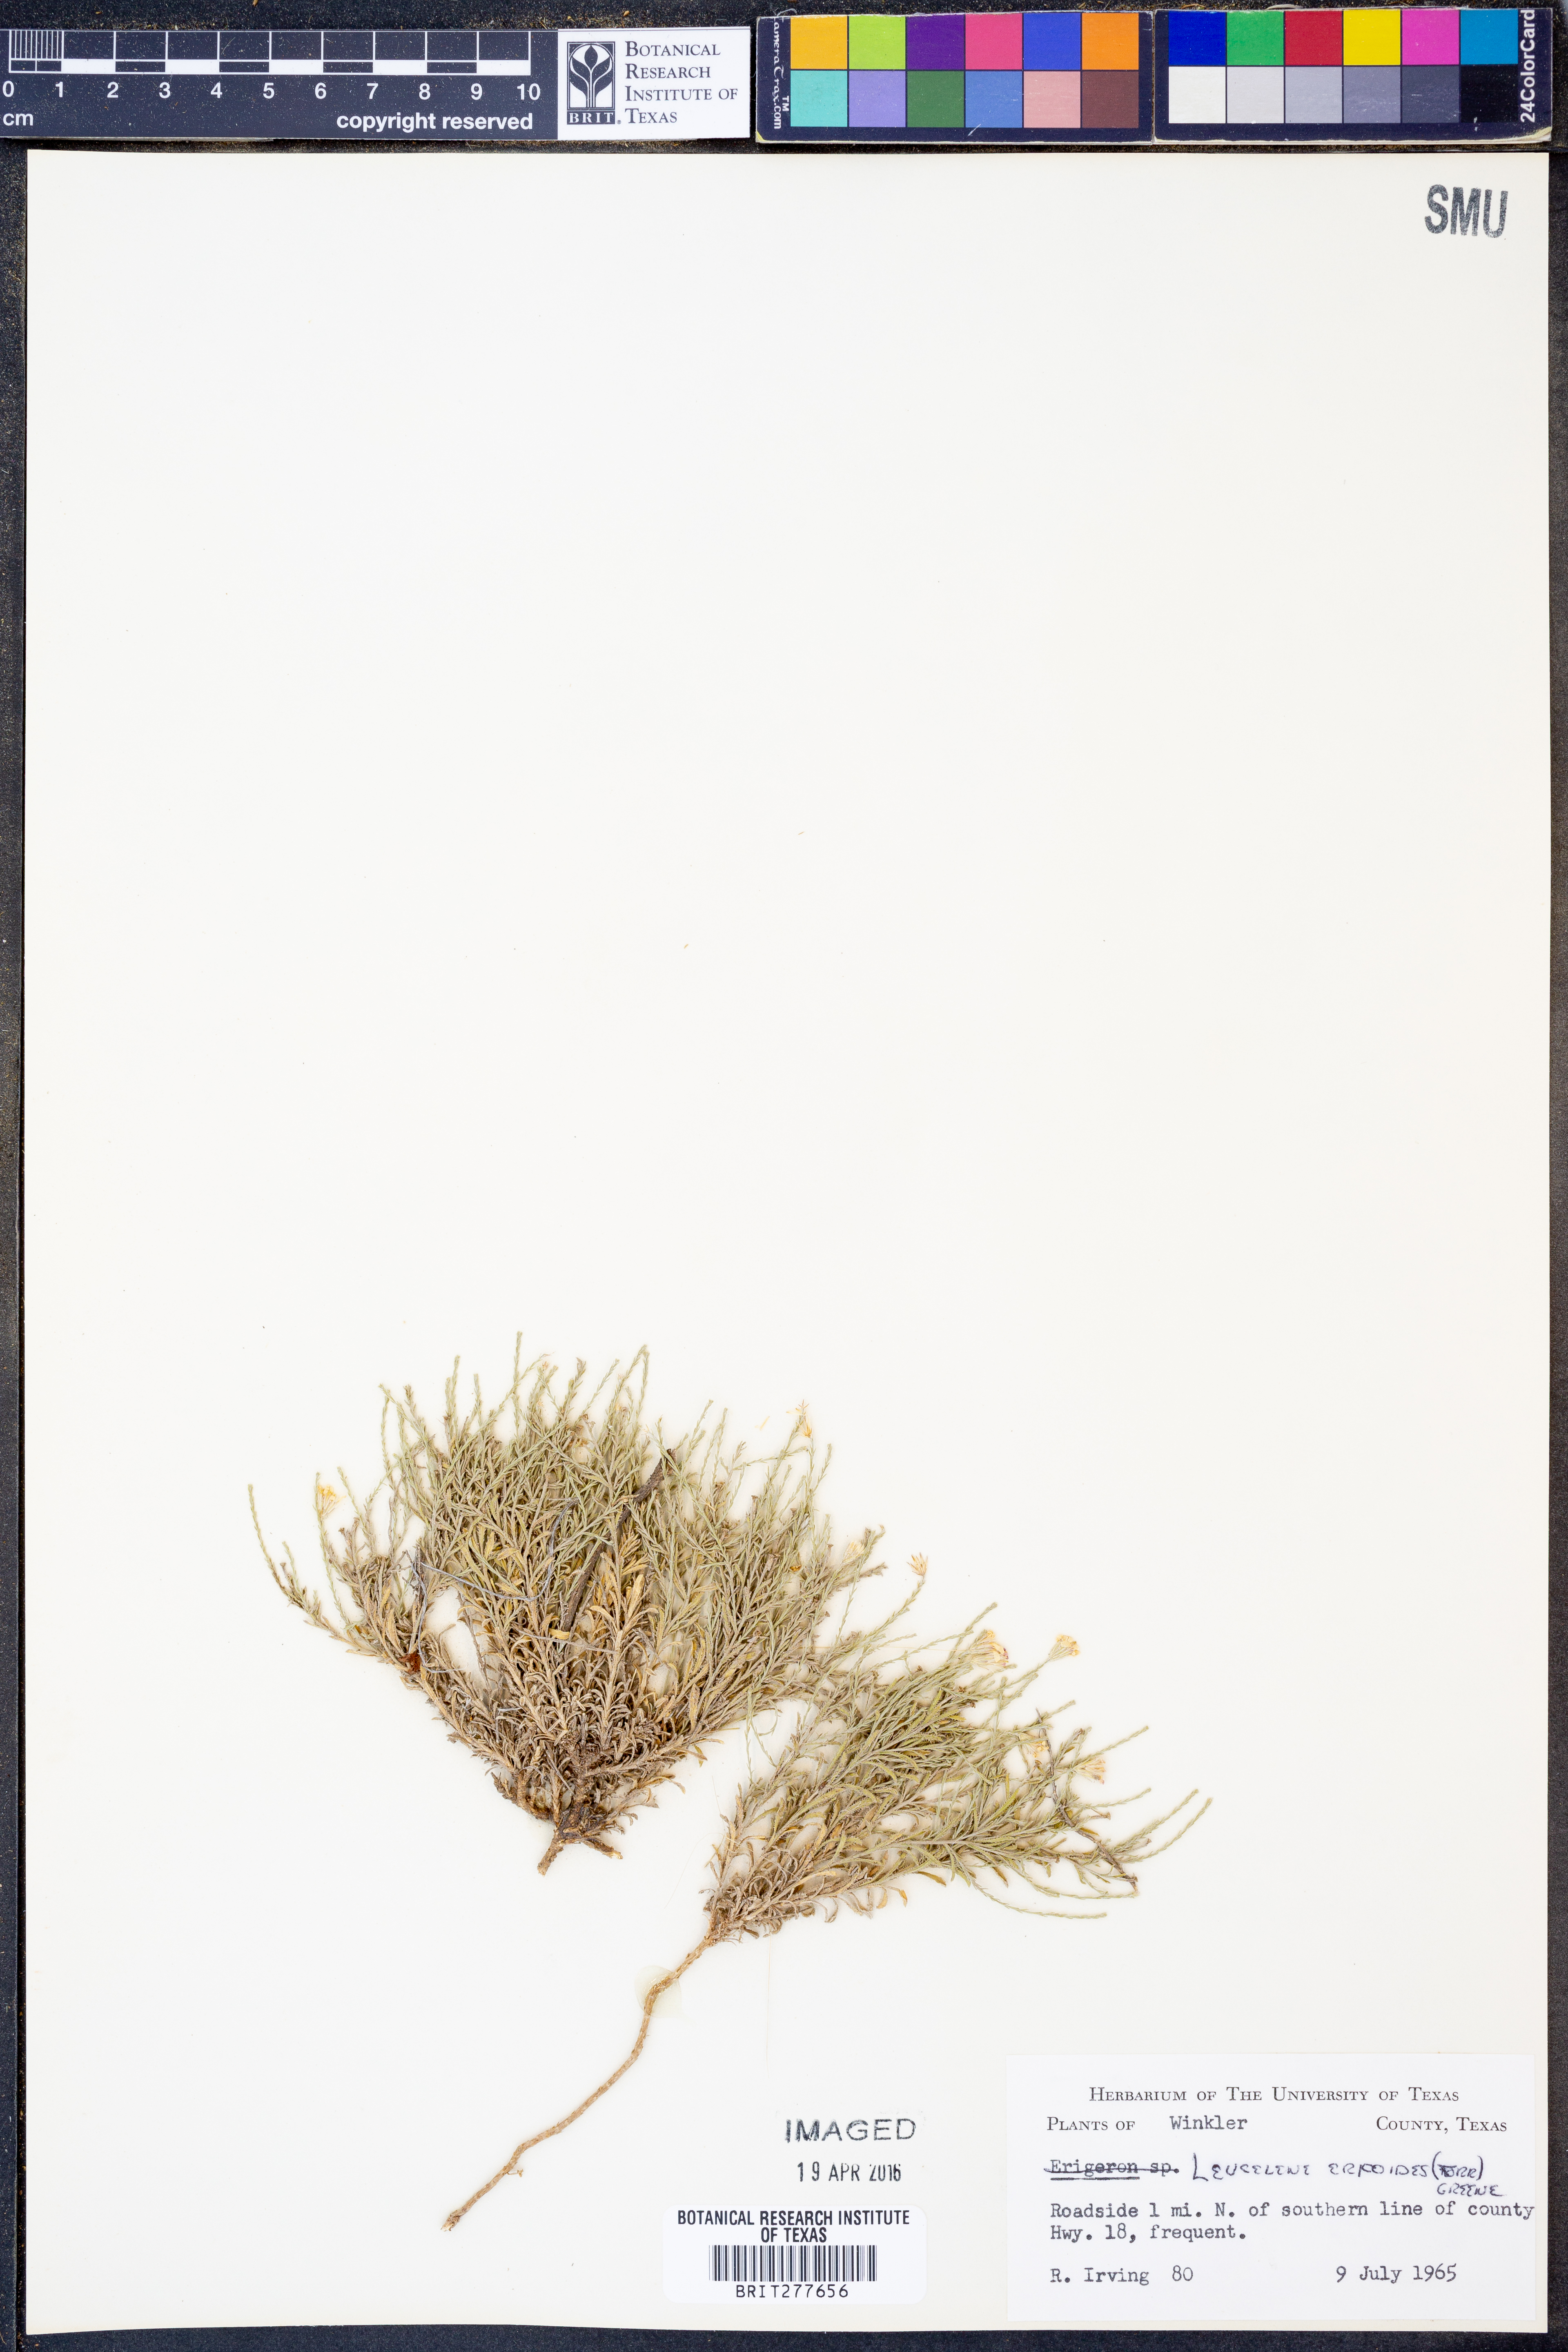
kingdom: Plantae
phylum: Tracheophyta
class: Magnoliopsida
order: Asterales
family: Asteraceae
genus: Chaetopappa
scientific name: Chaetopappa ericoides
